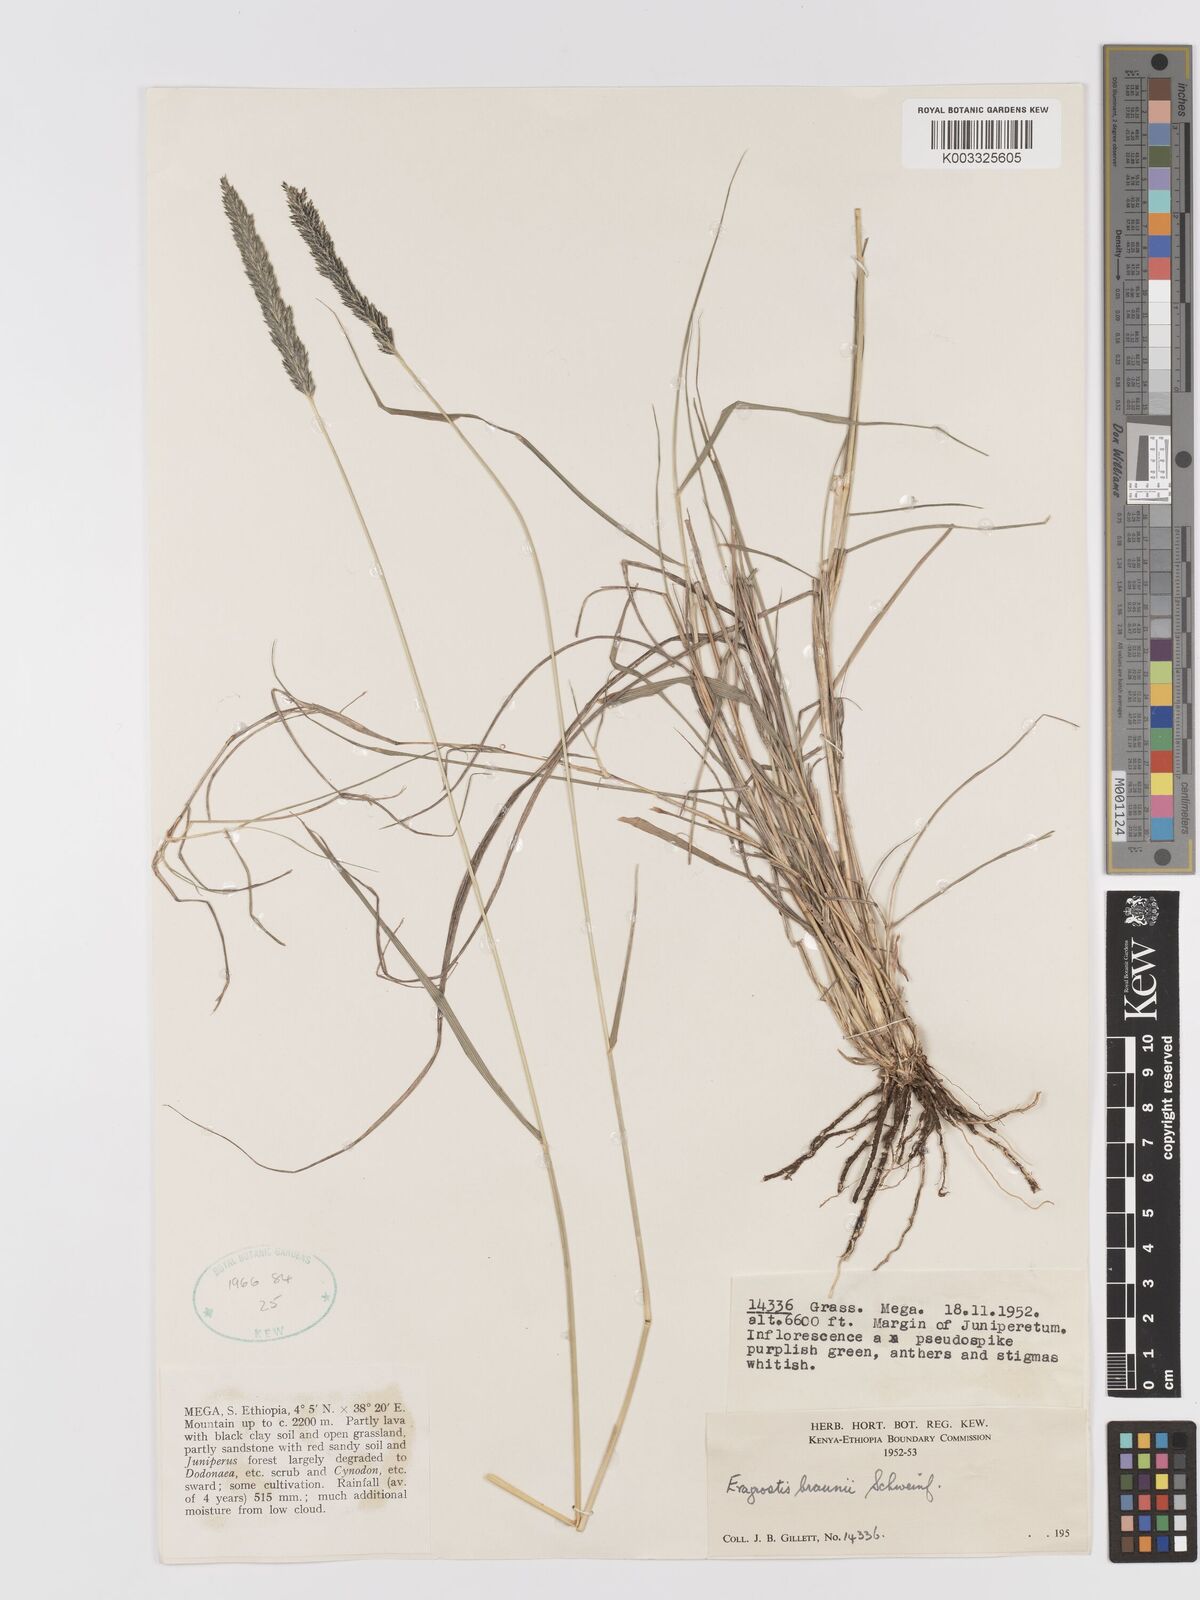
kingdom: Plantae
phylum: Tracheophyta
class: Liliopsida
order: Poales
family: Poaceae
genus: Eragrostis
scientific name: Eragrostis braunii
